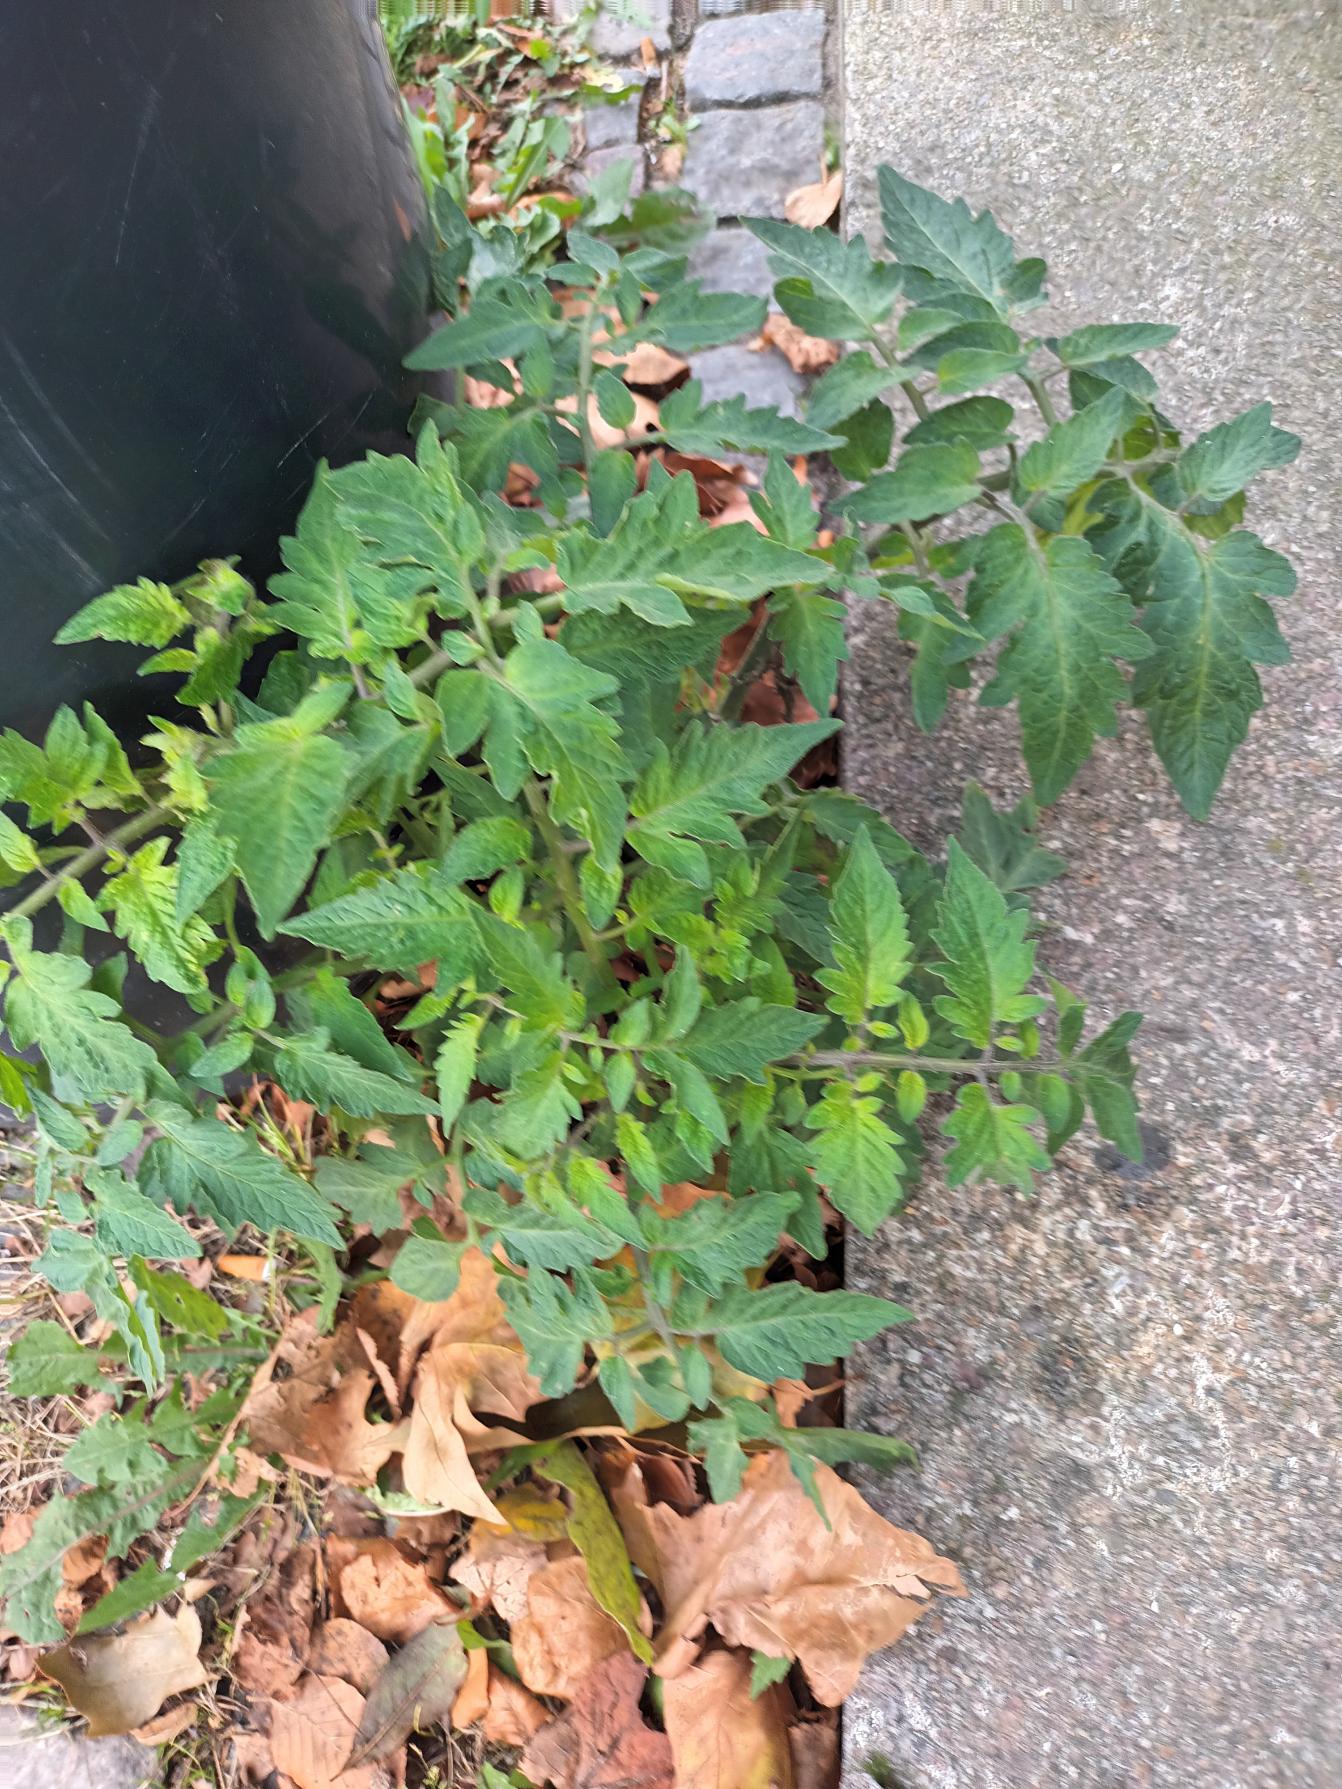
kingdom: Plantae
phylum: Tracheophyta
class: Magnoliopsida
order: Solanales
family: Solanaceae
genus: Solanum
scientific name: Solanum lycopersicum
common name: Tomat
